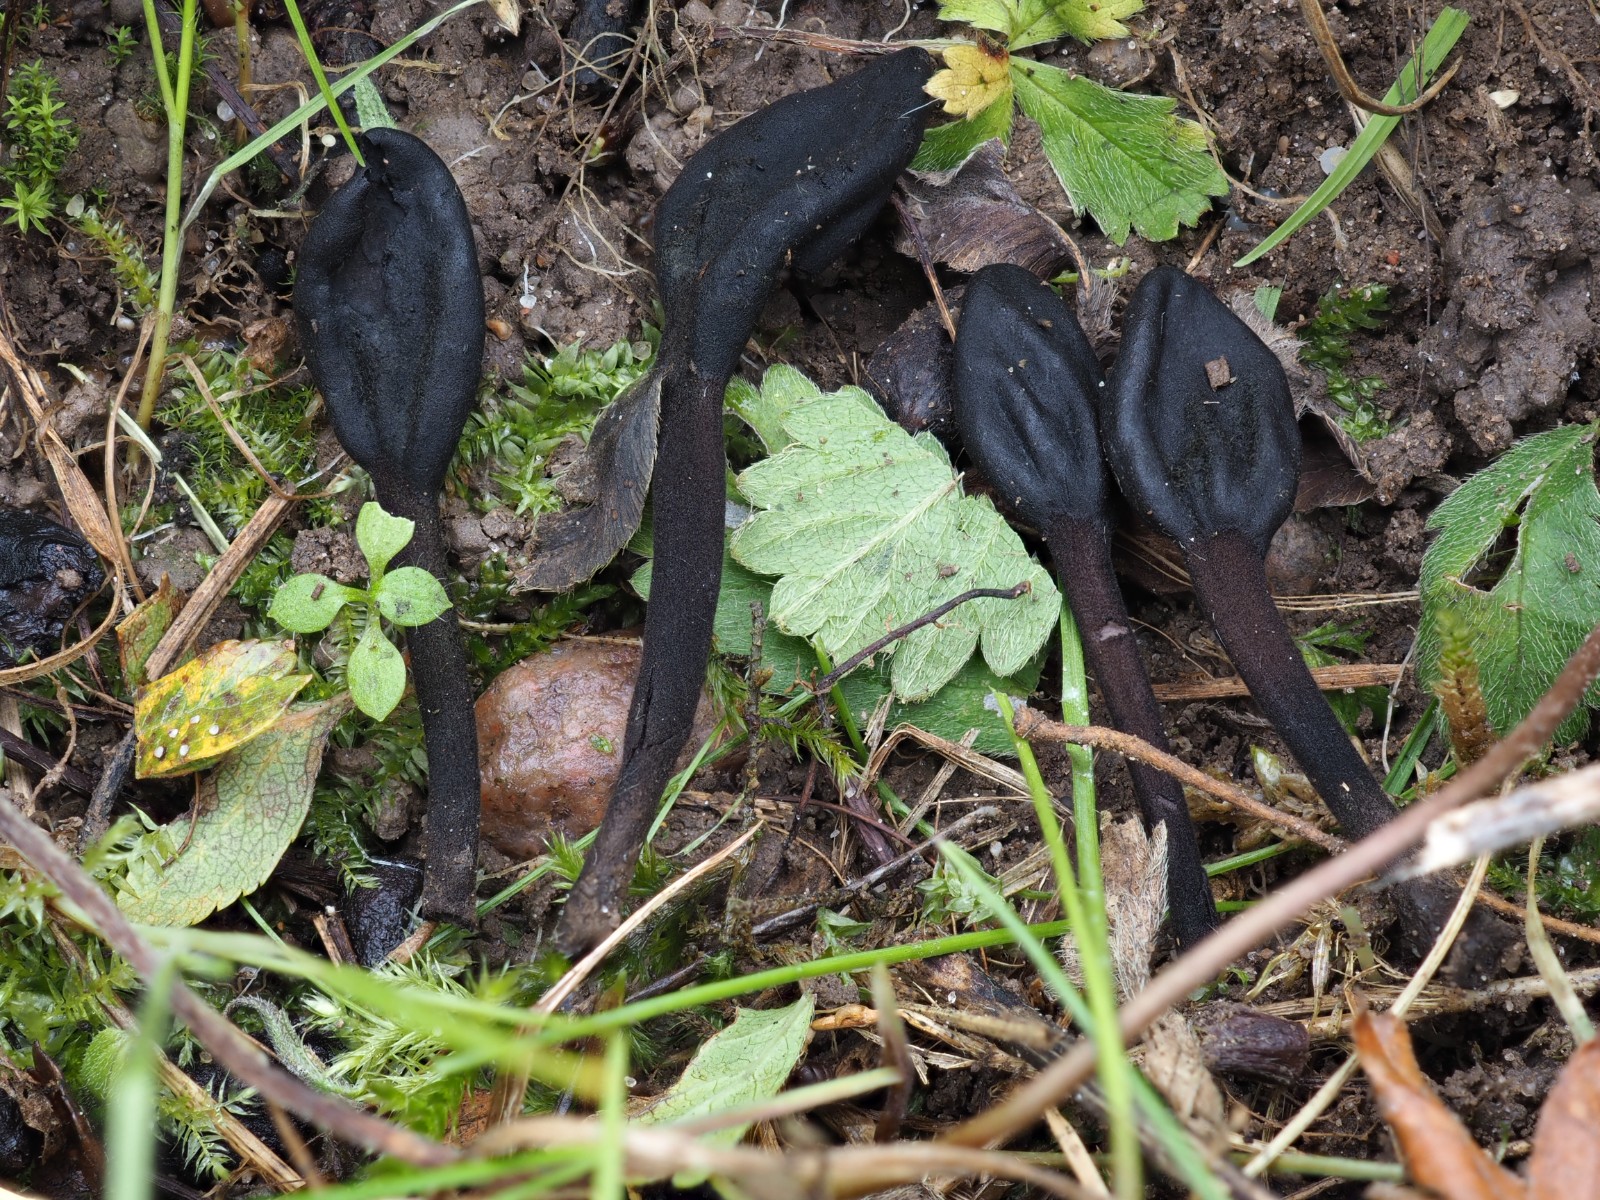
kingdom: Fungi
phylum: Ascomycota
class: Geoglossomycetes
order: Geoglossales
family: Geoglossaceae
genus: Trichoglossum
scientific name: Trichoglossum hirsutum
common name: håret jordtunge
